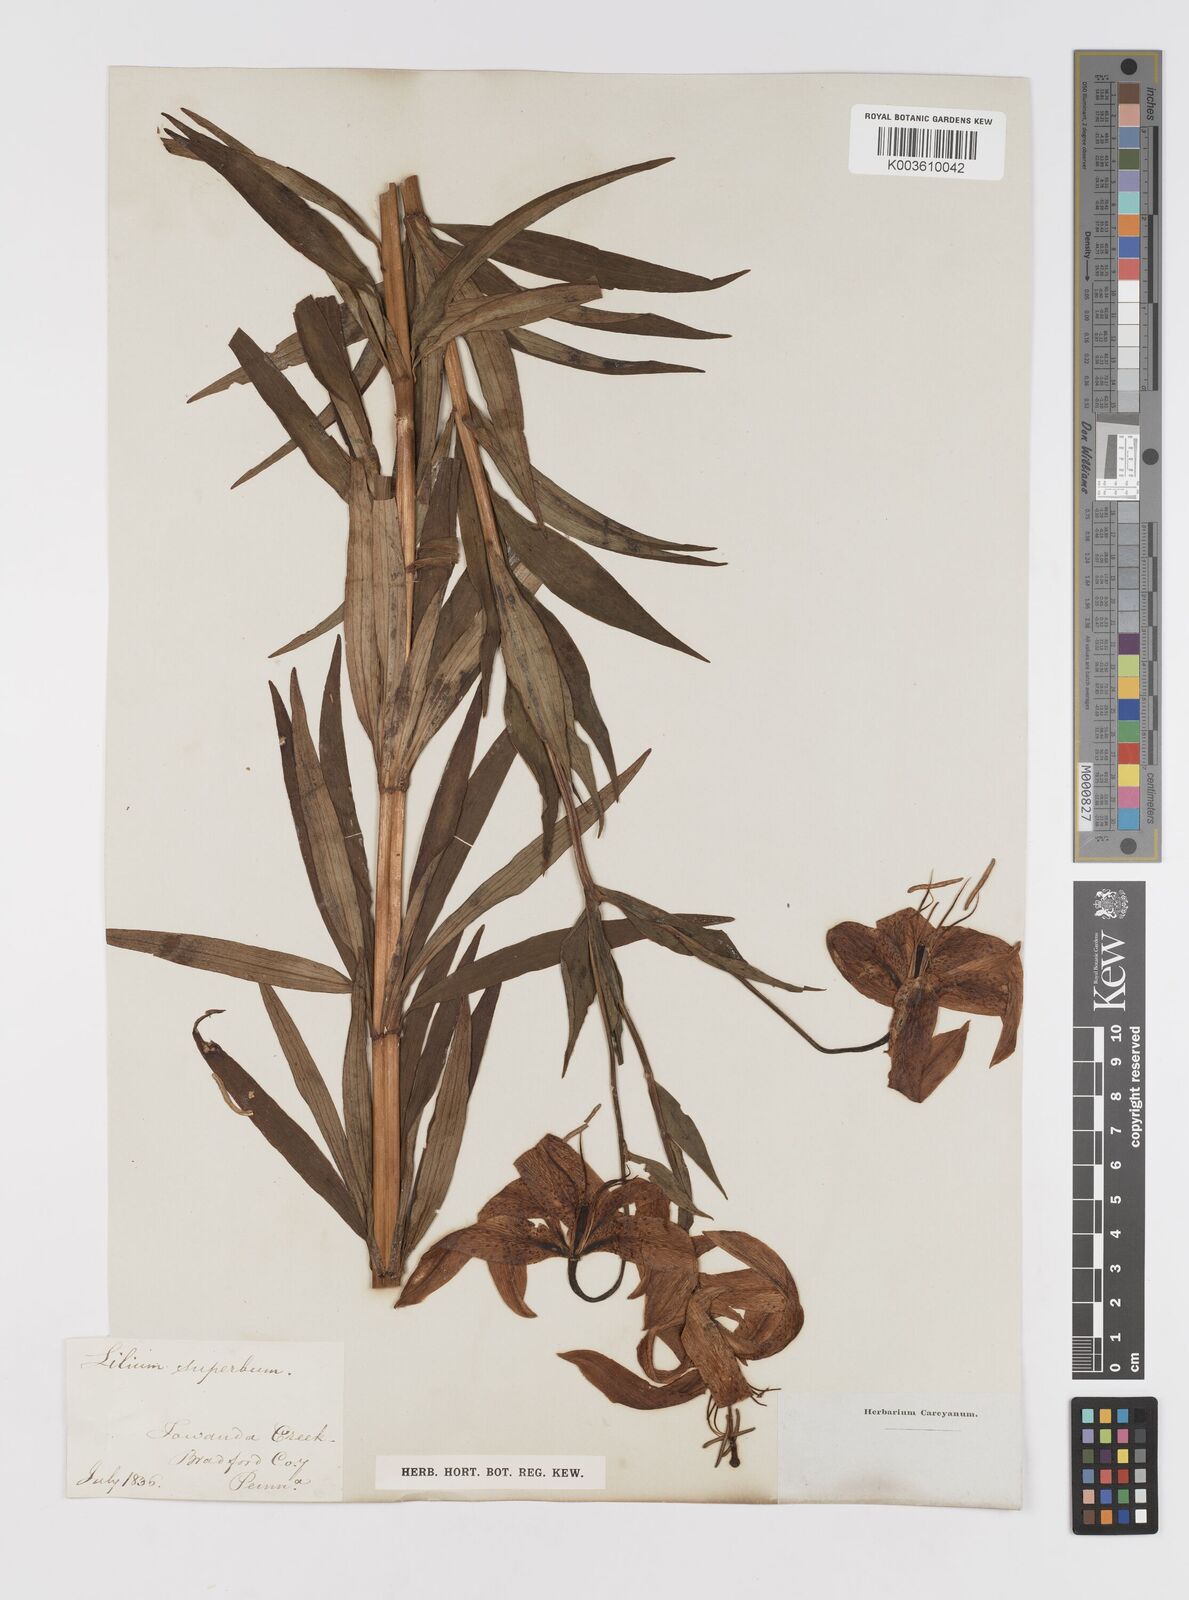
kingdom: Plantae
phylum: Tracheophyta
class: Liliopsida
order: Liliales
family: Liliaceae
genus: Lilium
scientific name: Lilium superbum
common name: American turk's-cap lily
